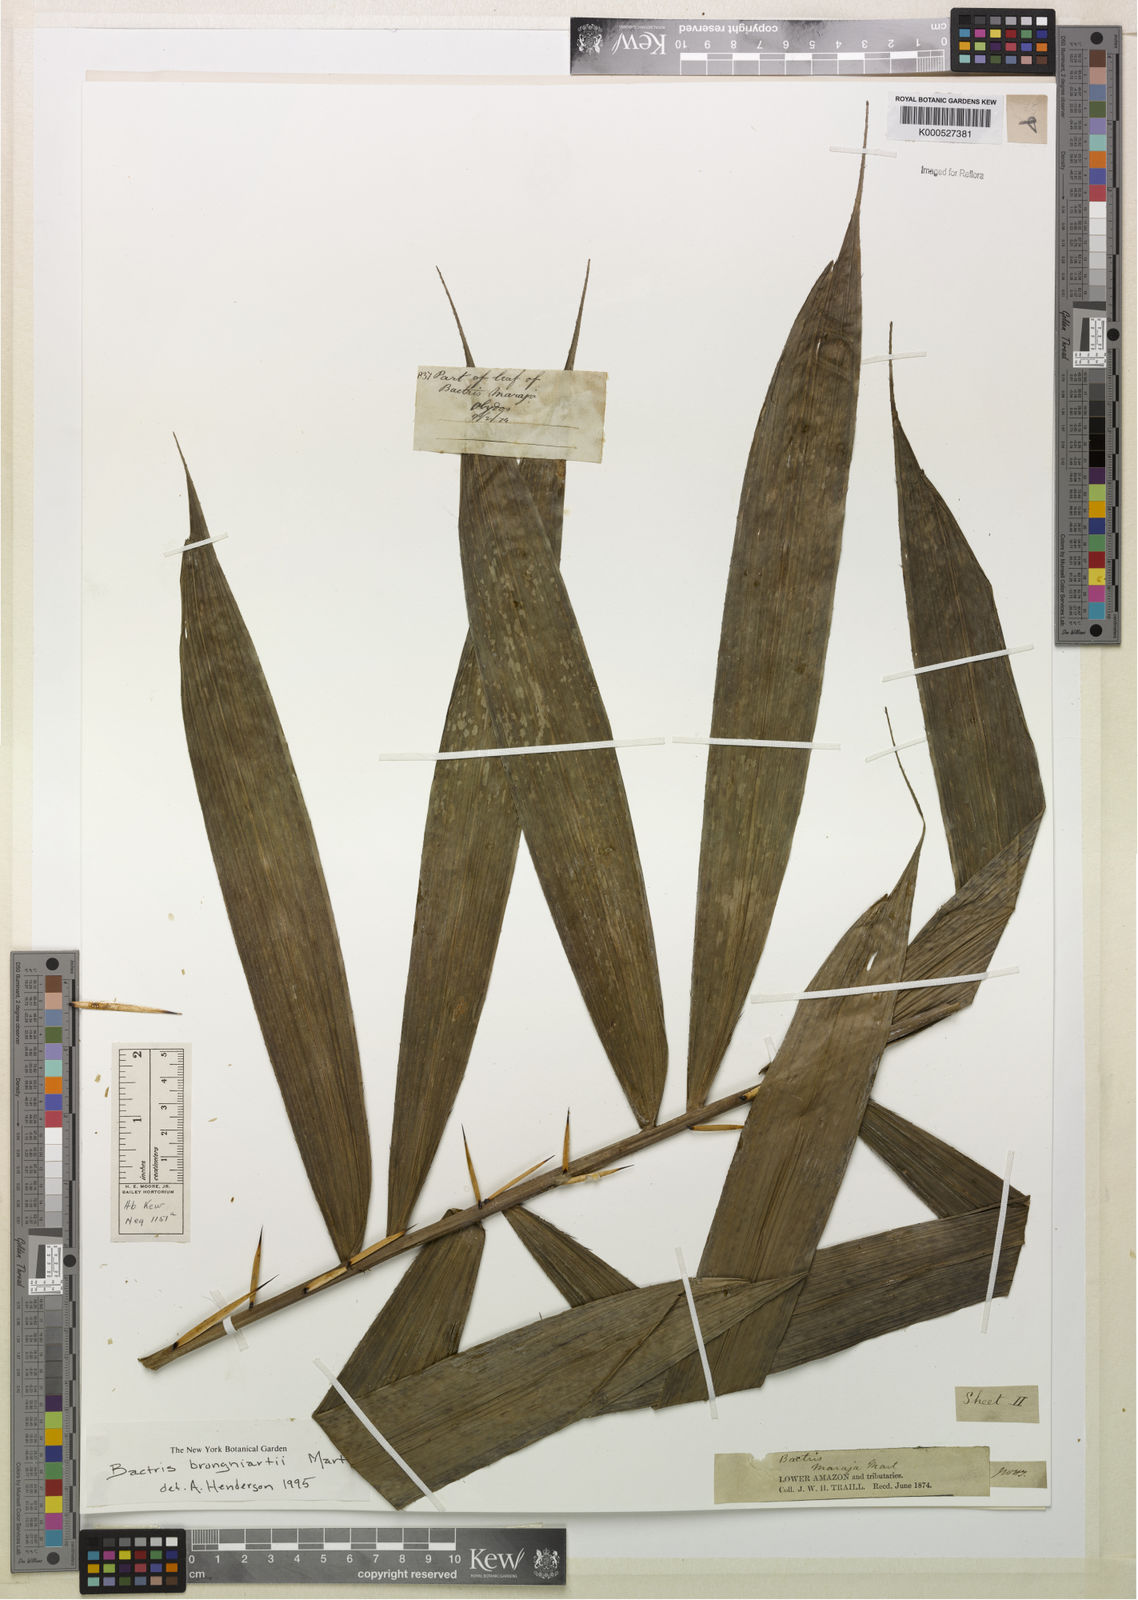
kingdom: Plantae
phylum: Tracheophyta
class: Liliopsida
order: Arecales
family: Arecaceae
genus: Bactris
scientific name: Bactris brongniartii
